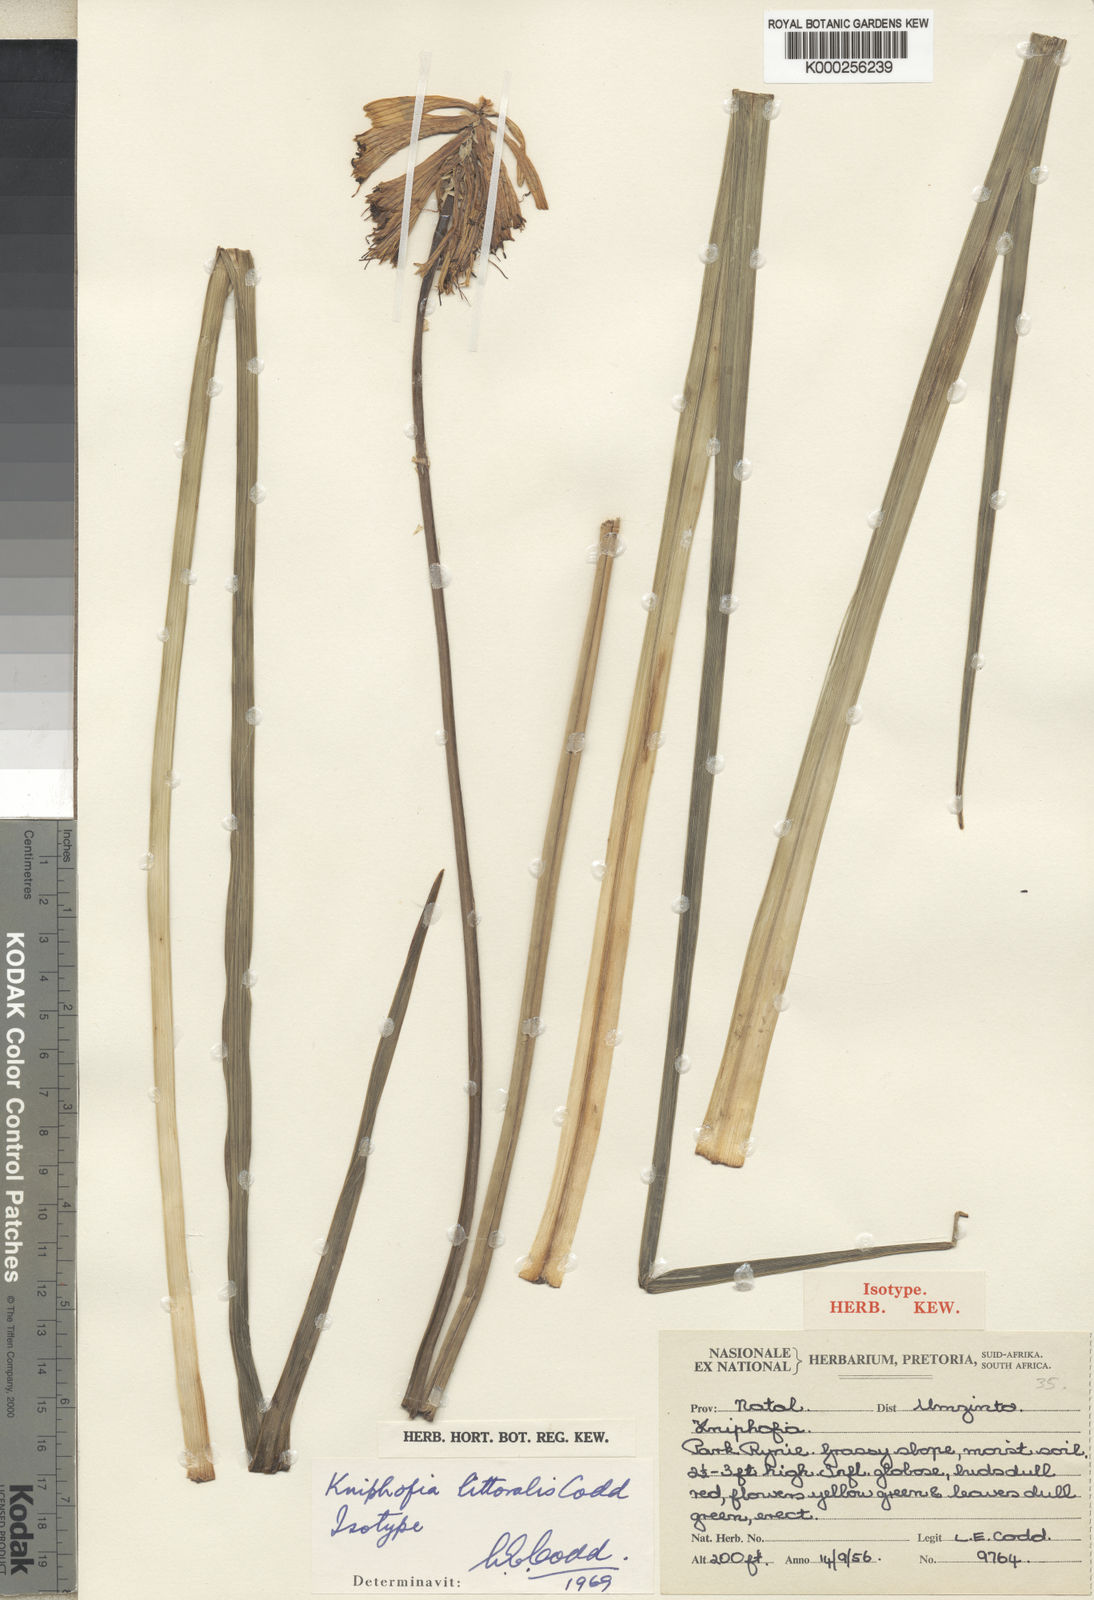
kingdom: Plantae
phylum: Tracheophyta
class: Liliopsida
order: Asparagales
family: Asphodelaceae
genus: Kniphofia
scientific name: Kniphofia littoralis
